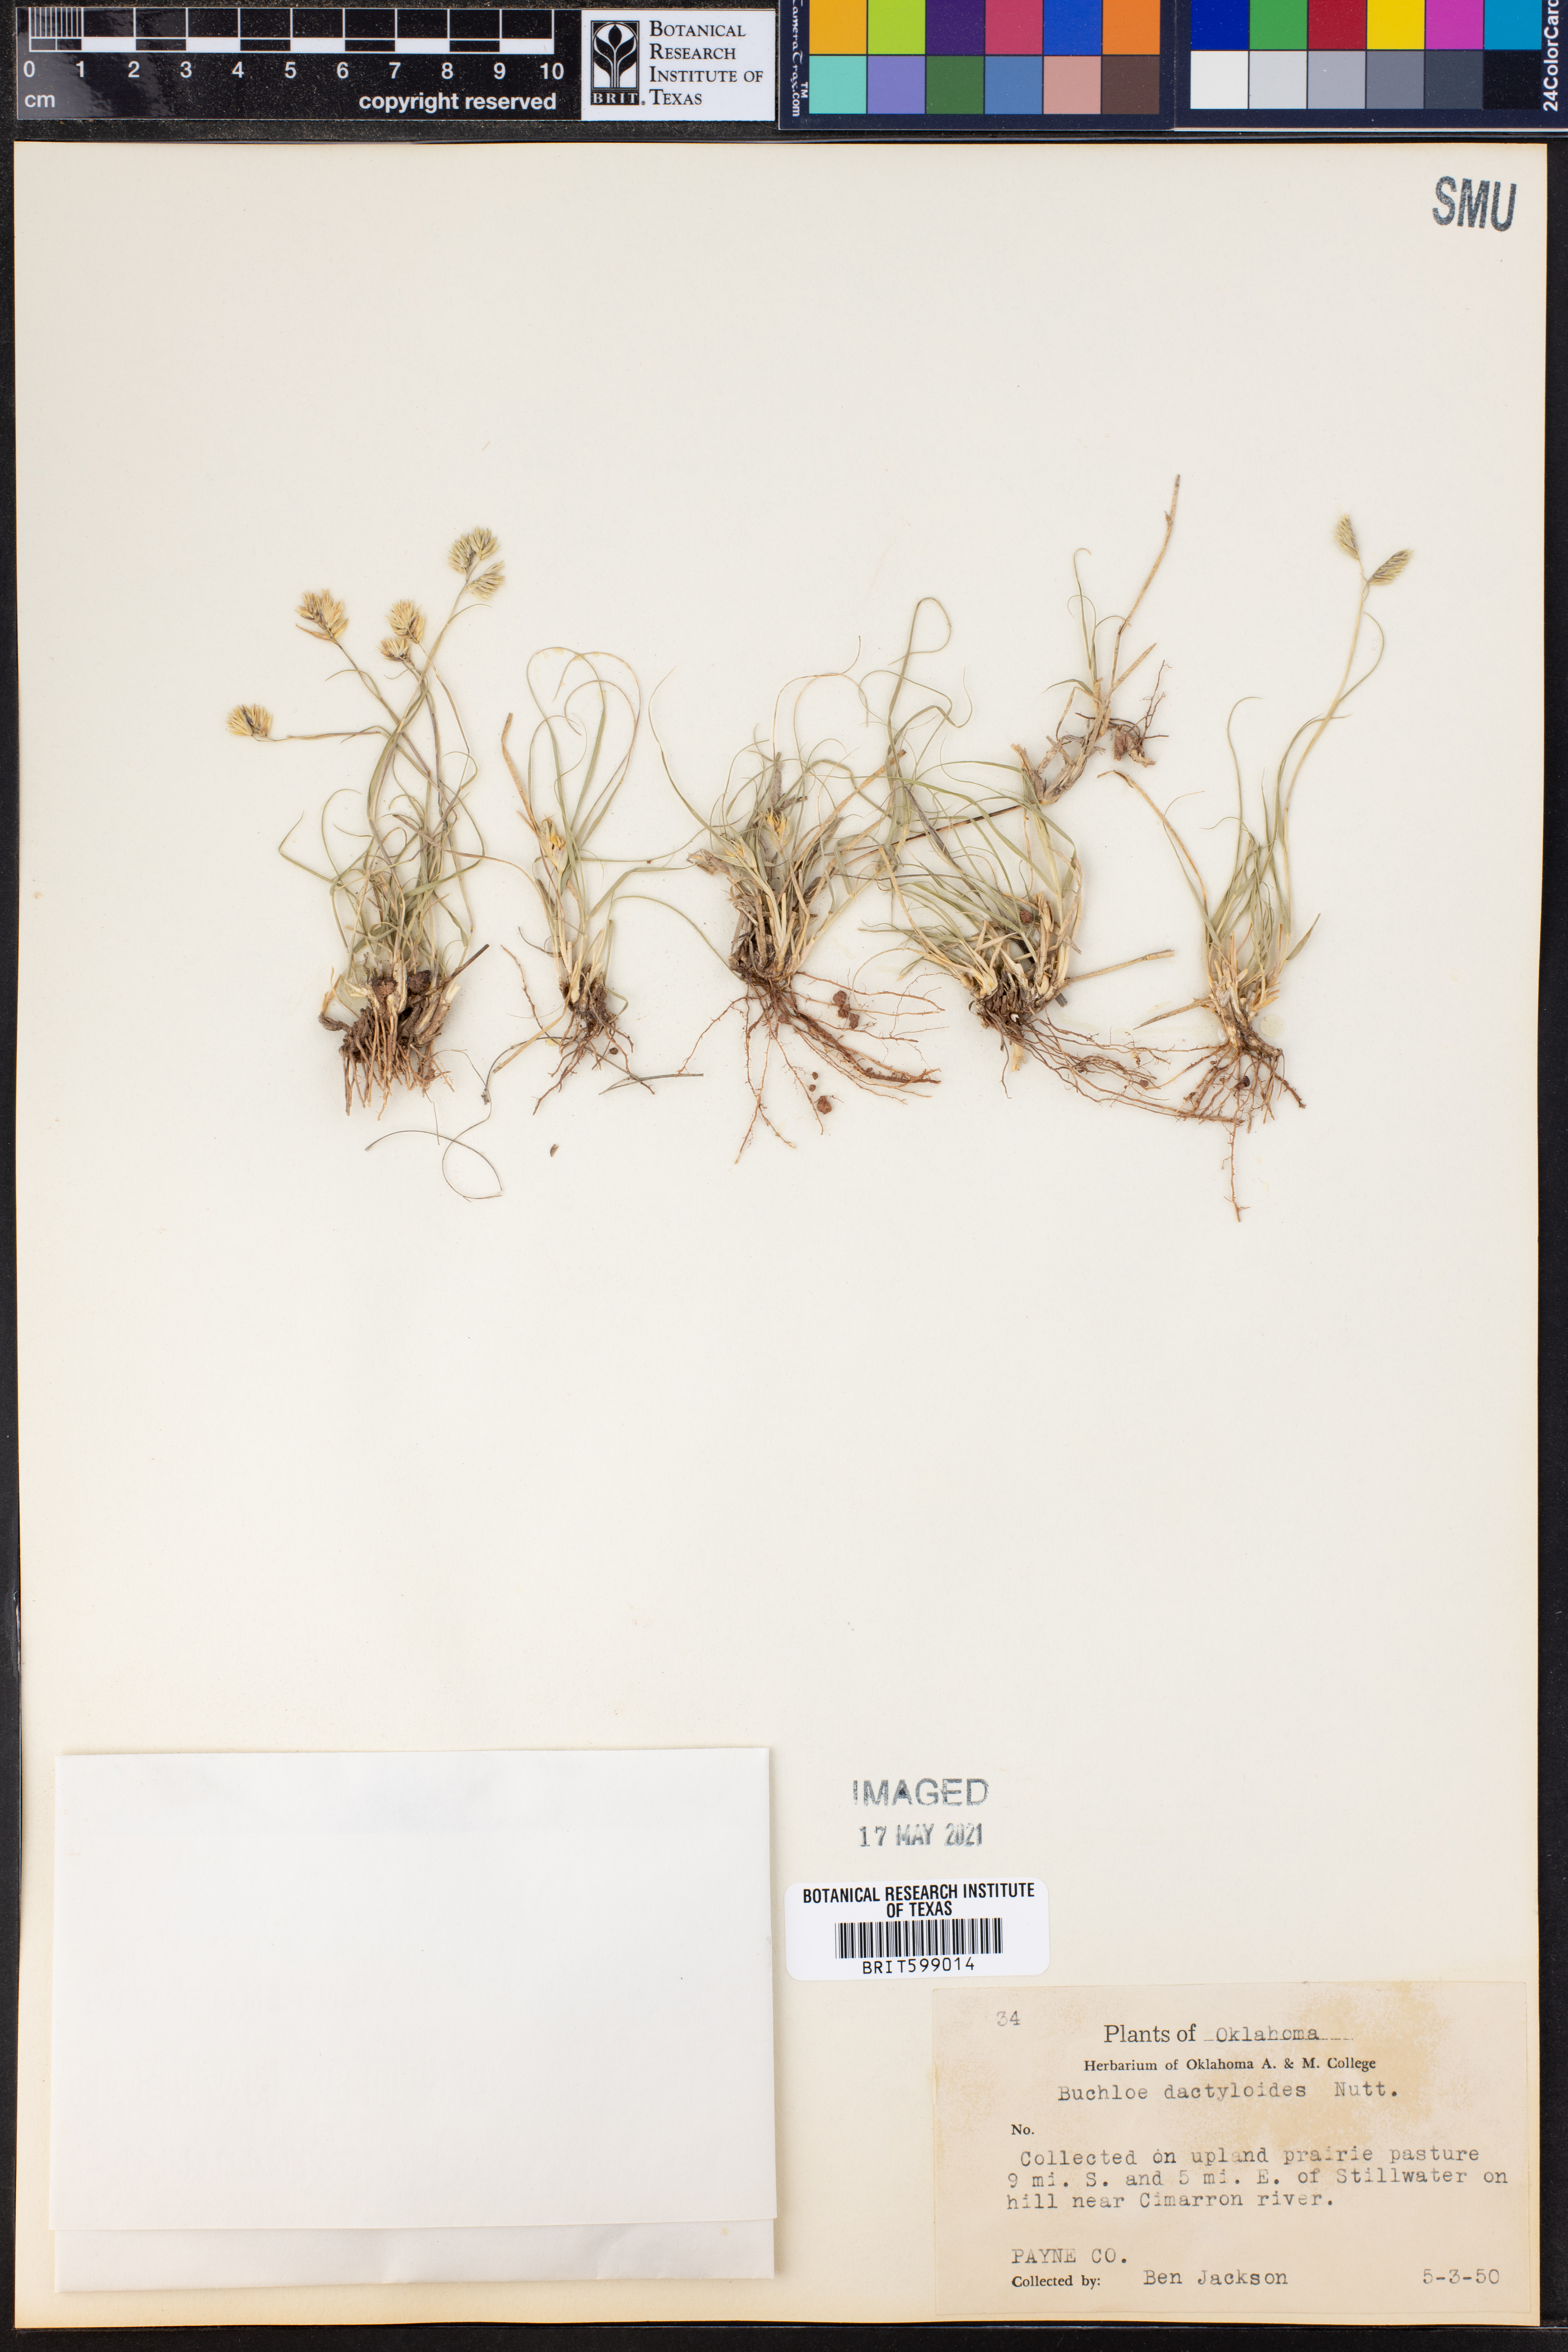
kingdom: Plantae
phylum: Tracheophyta
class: Liliopsida
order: Poales
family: Poaceae
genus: Bouteloua
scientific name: Bouteloua dactyloides
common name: Buffalo grass
